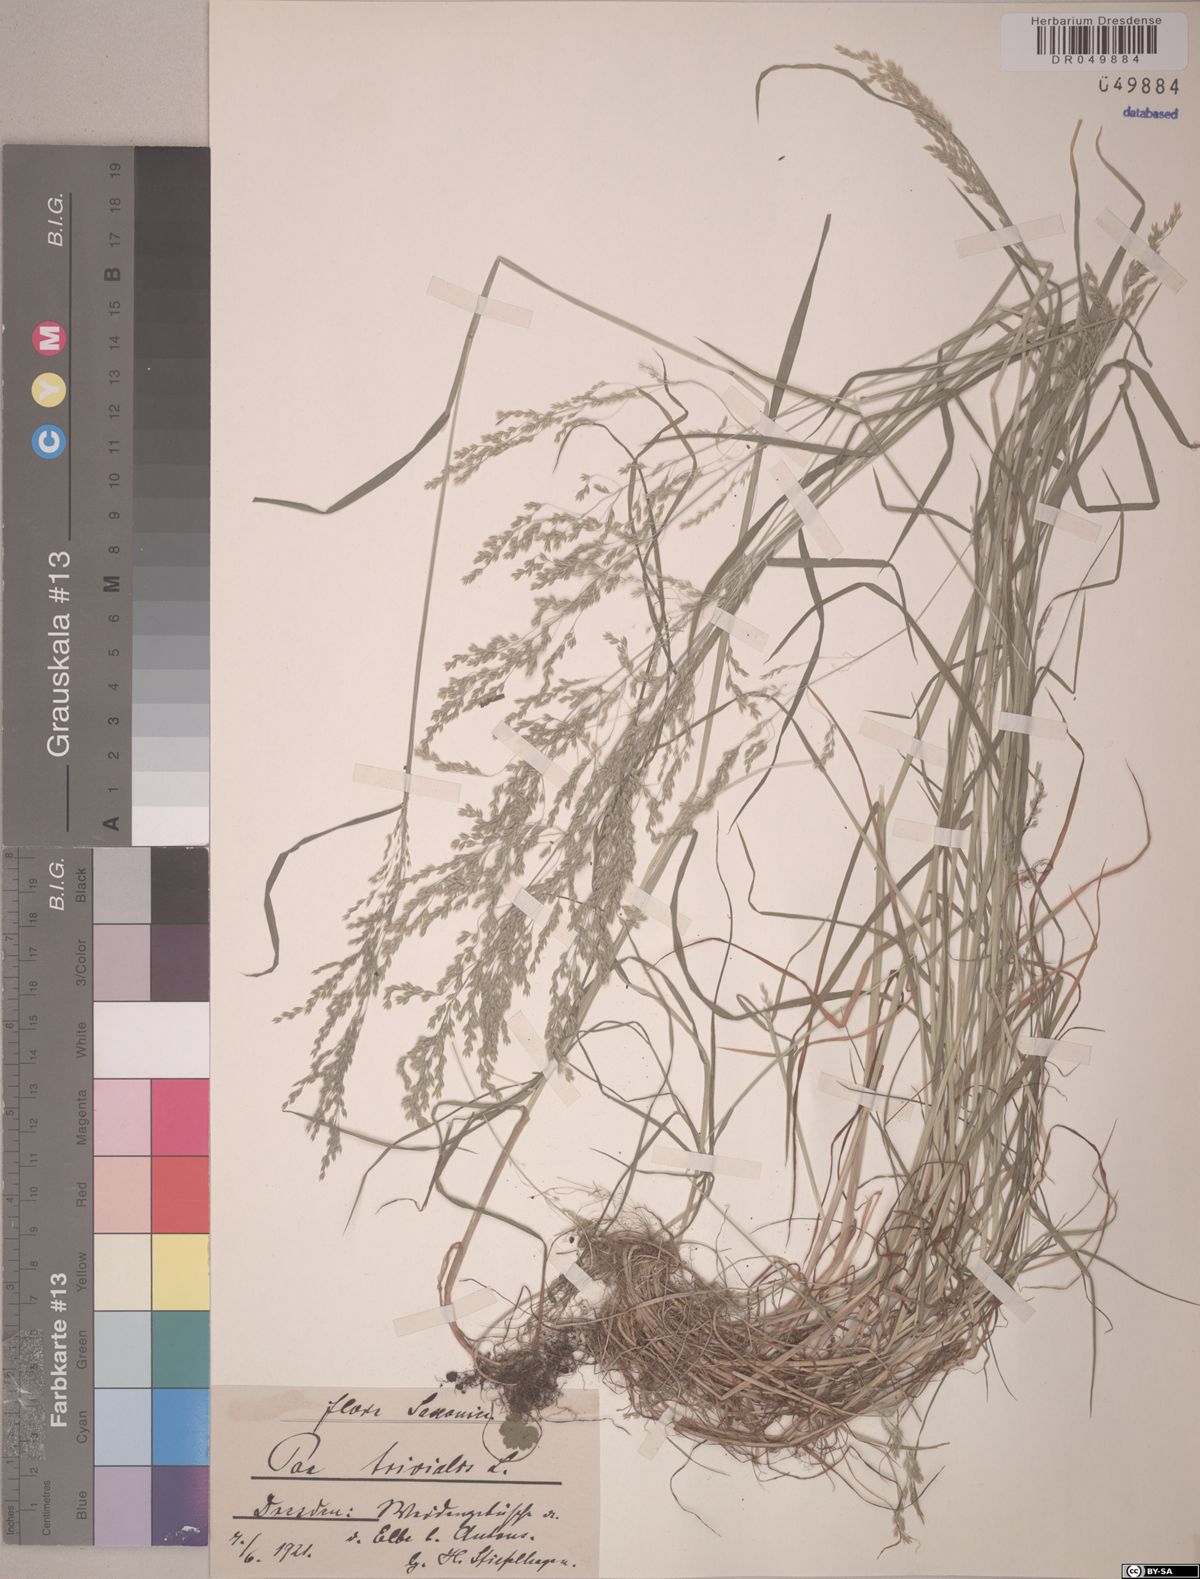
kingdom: Plantae
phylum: Tracheophyta
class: Liliopsida
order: Poales
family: Poaceae
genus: Poa
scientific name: Poa trivialis
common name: Rough bluegrass
